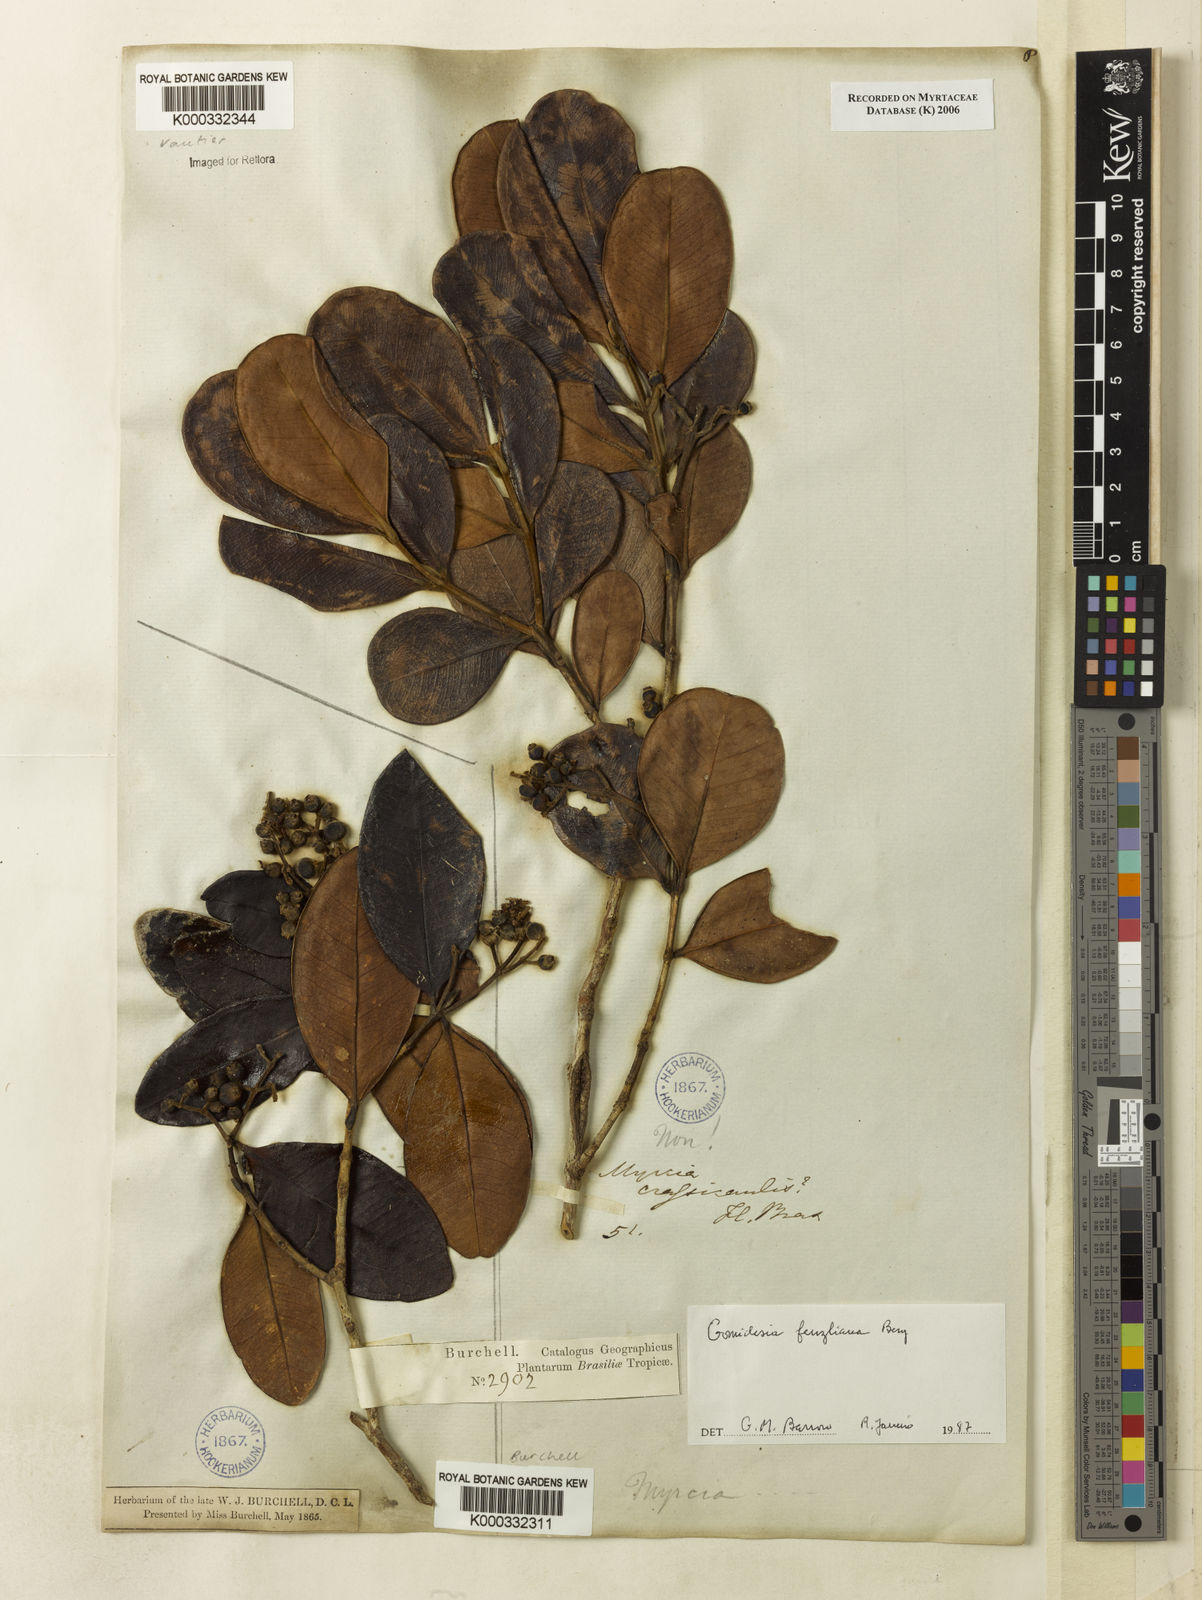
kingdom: Plantae
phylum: Tracheophyta
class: Magnoliopsida
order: Myrtales
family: Myrtaceae
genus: Myrcia
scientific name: Myrcia ilheosensis
